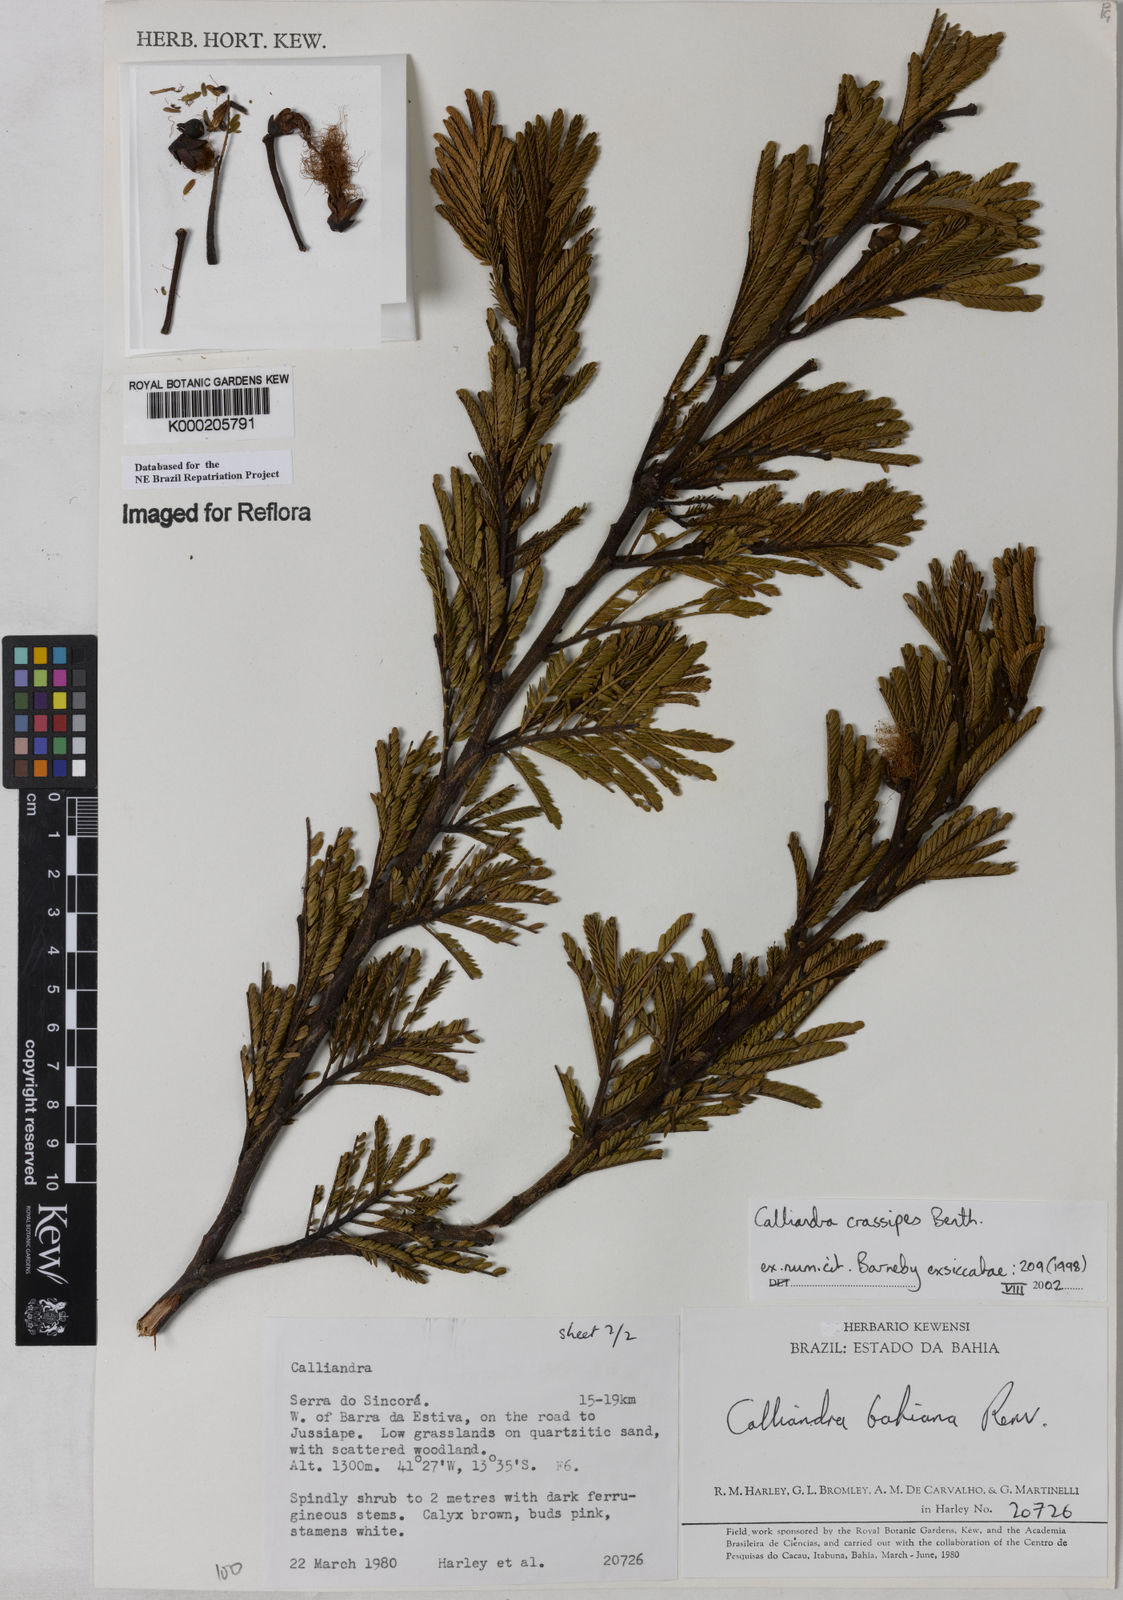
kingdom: Plantae
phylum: Tracheophyta
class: Magnoliopsida
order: Fabales
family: Fabaceae
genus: Calliandra
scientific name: Calliandra crassipes
